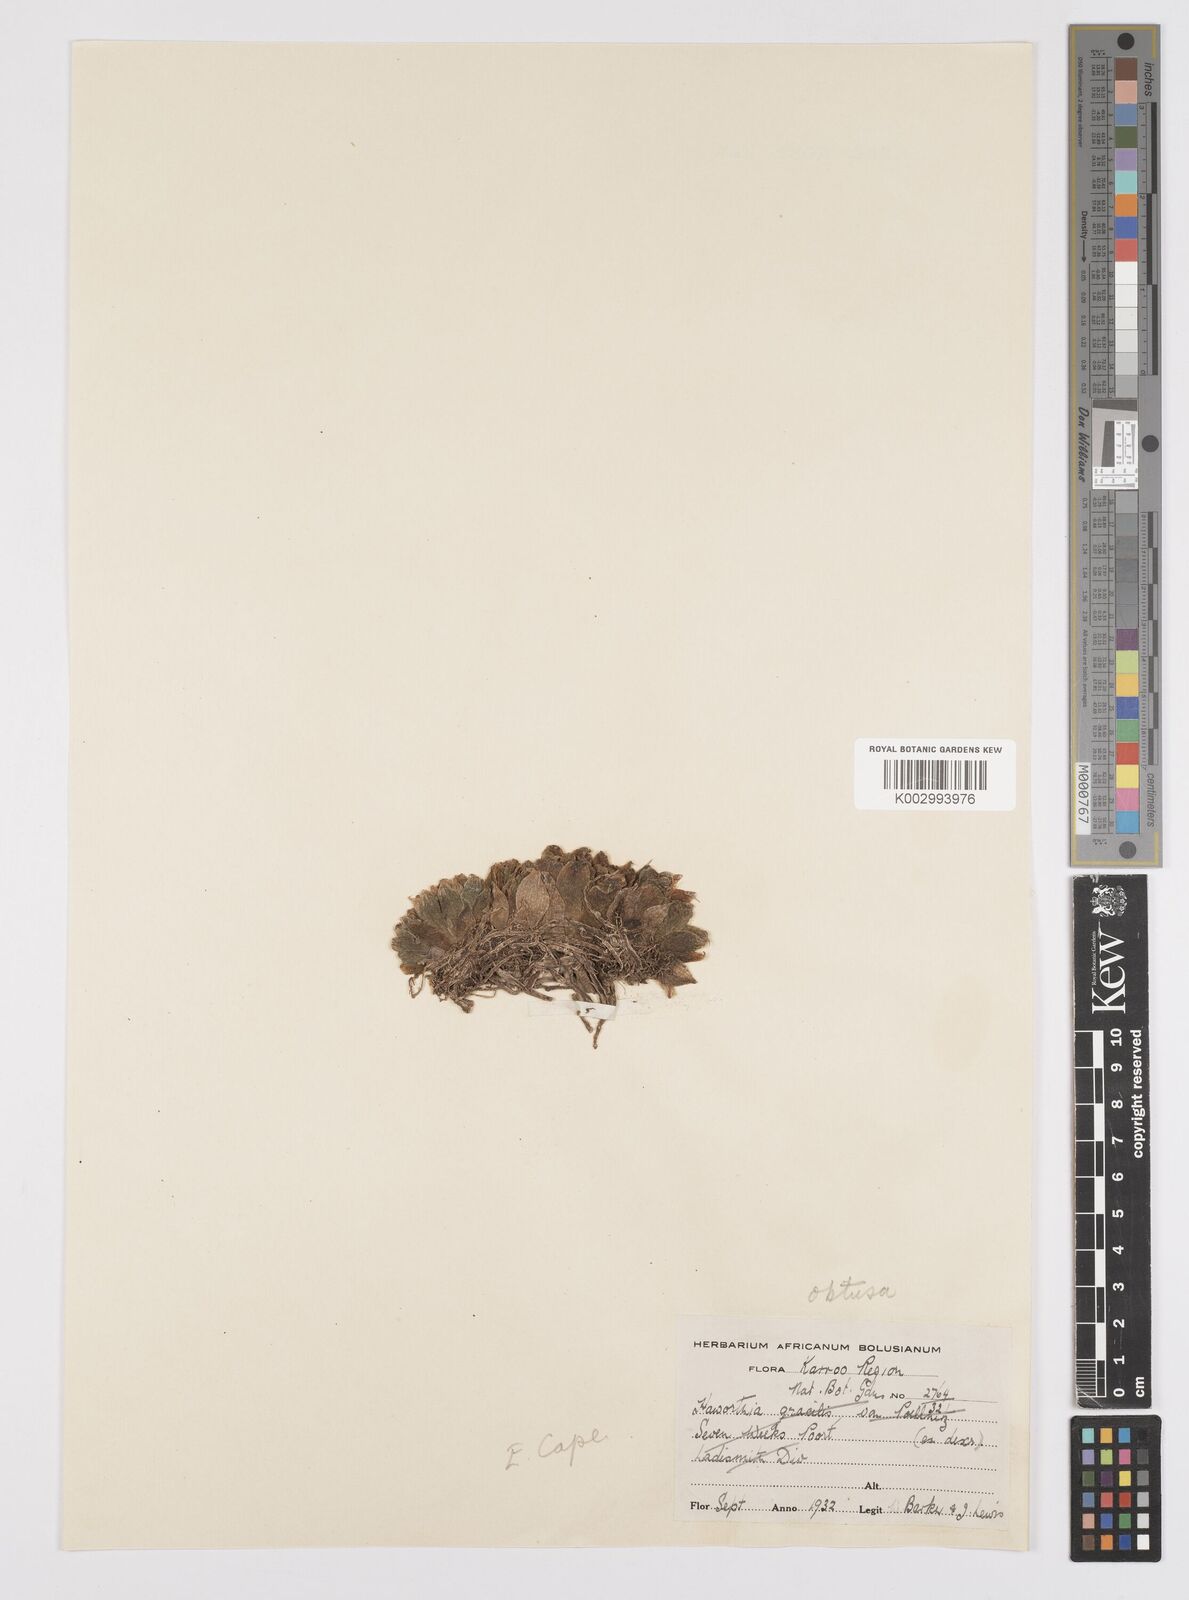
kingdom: Plantae
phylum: Tracheophyta
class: Liliopsida
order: Asparagales
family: Asphodelaceae
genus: Haworthia
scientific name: Haworthia cymbiformis
